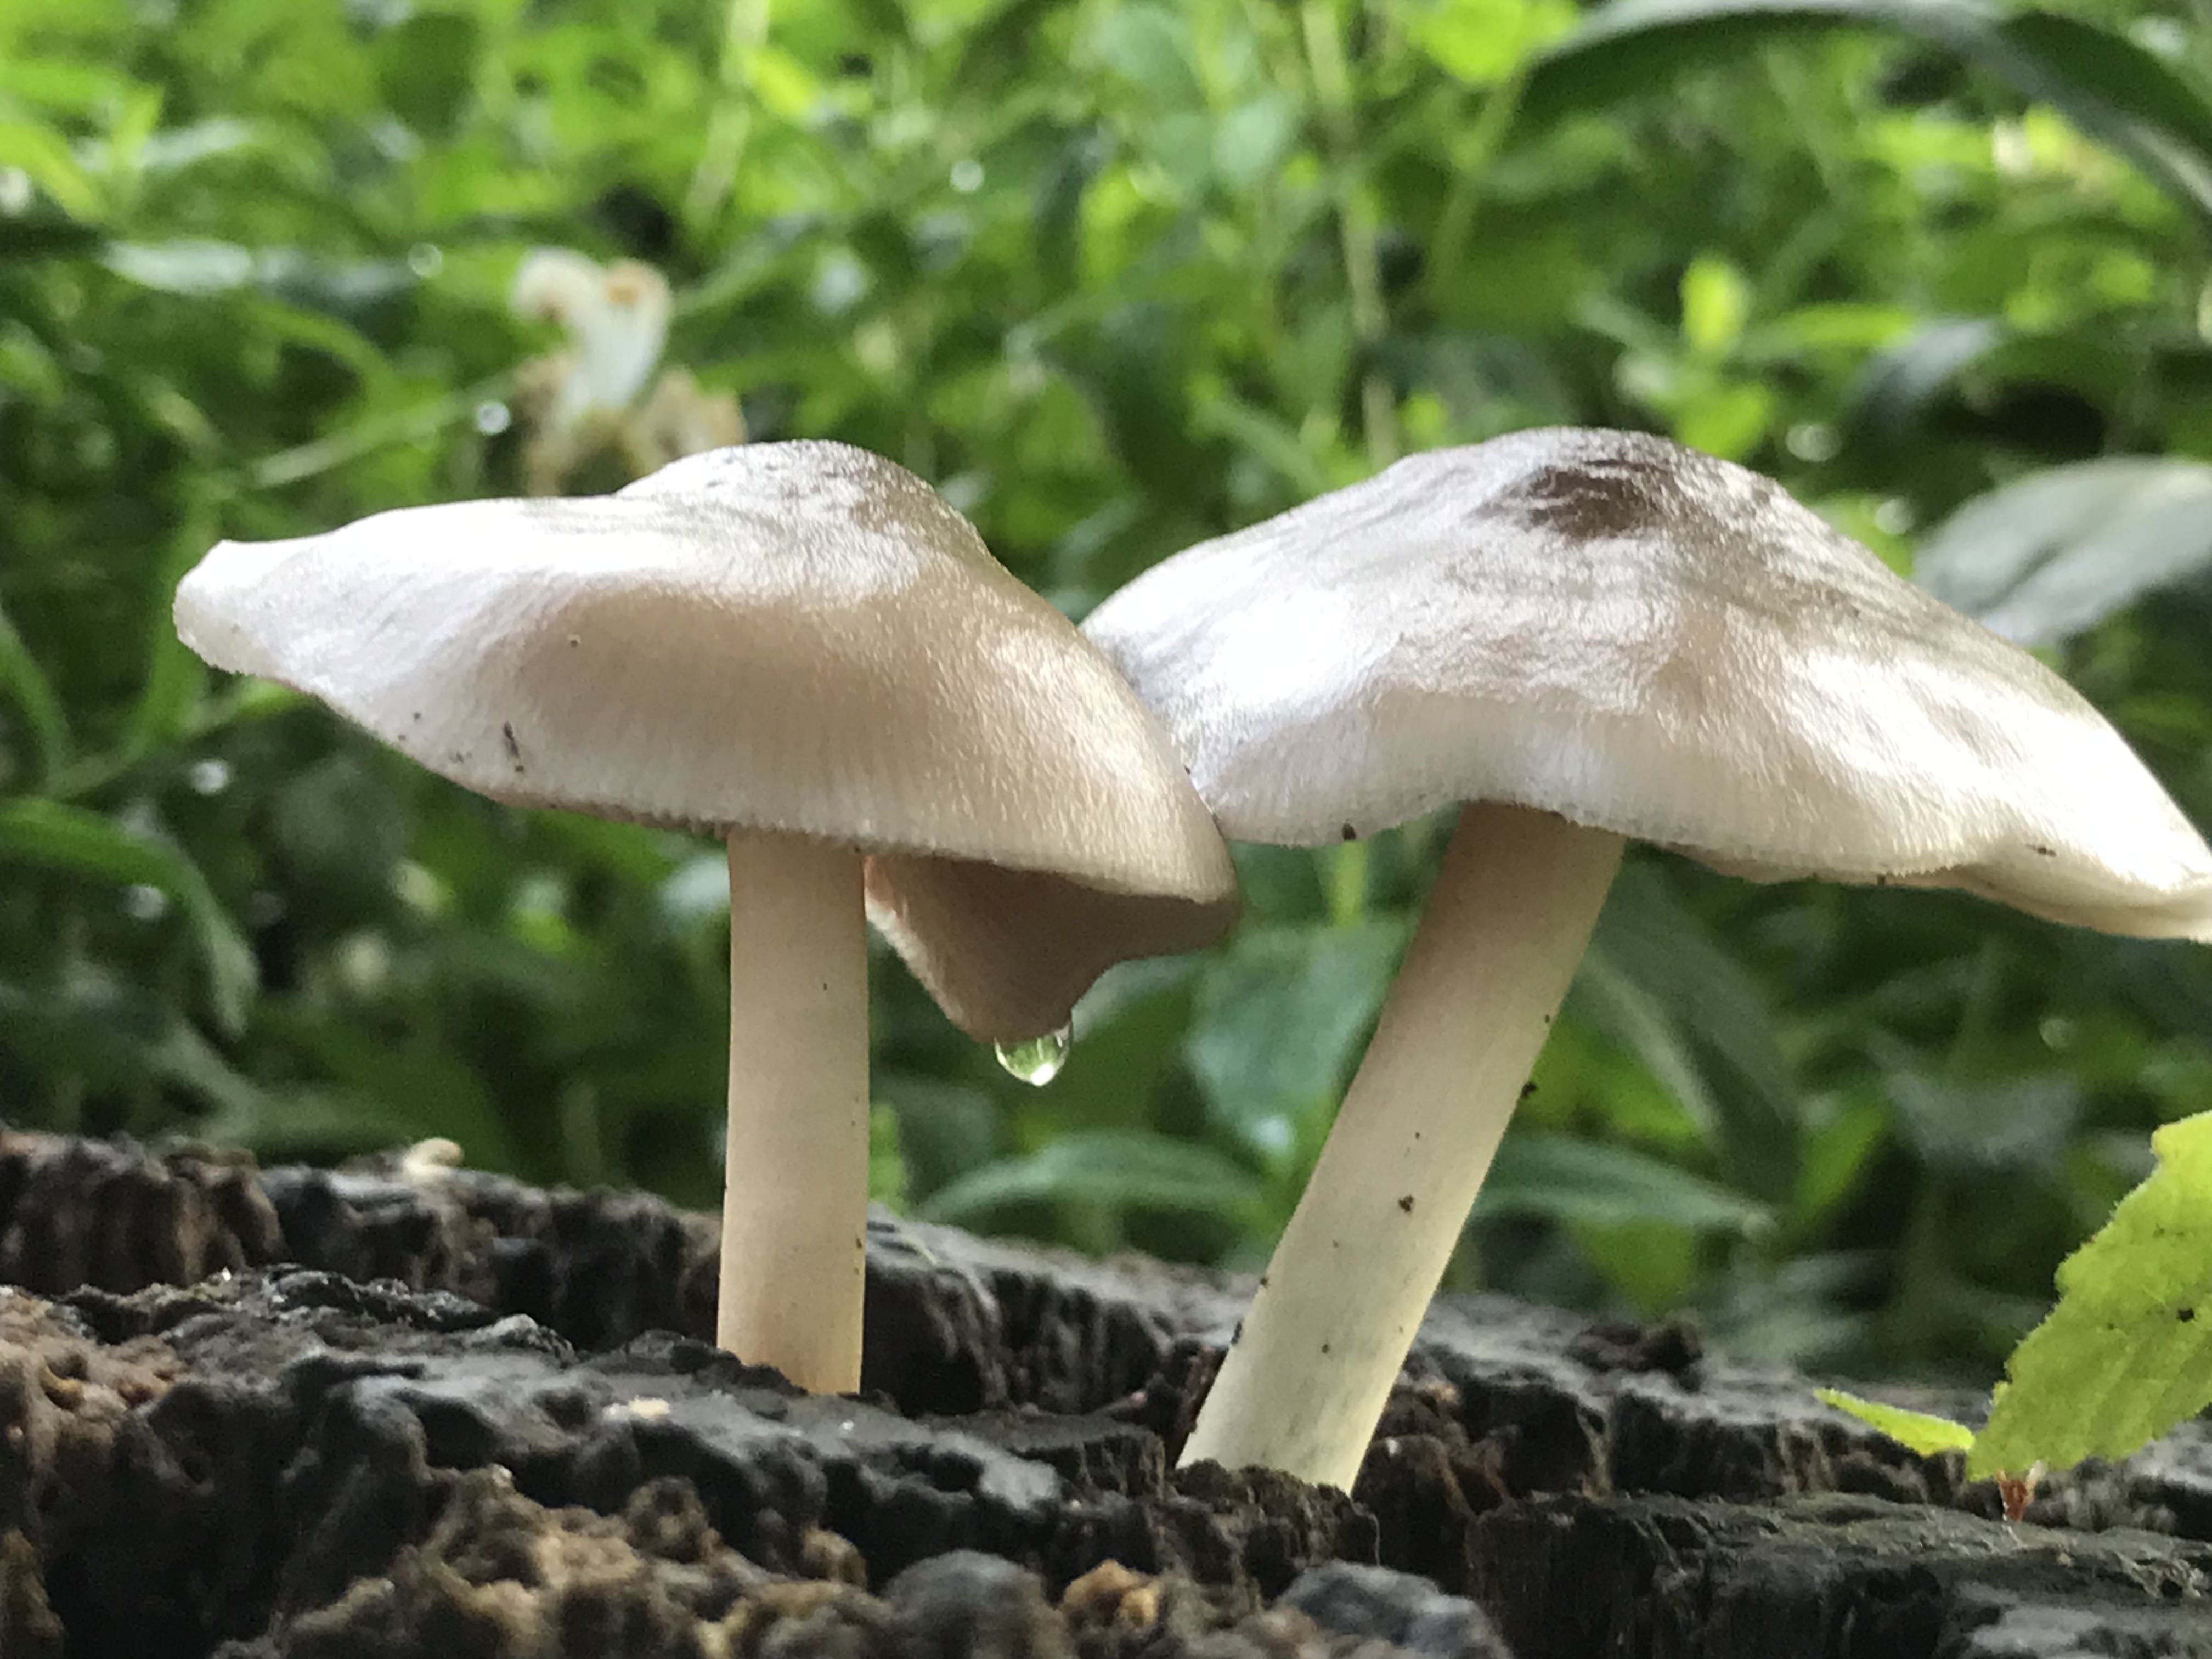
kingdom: Fungi
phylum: Basidiomycota
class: Agaricomycetes
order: Agaricales
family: Pluteaceae
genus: Pluteus
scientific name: Pluteus salicinus
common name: stiv skærmhat
